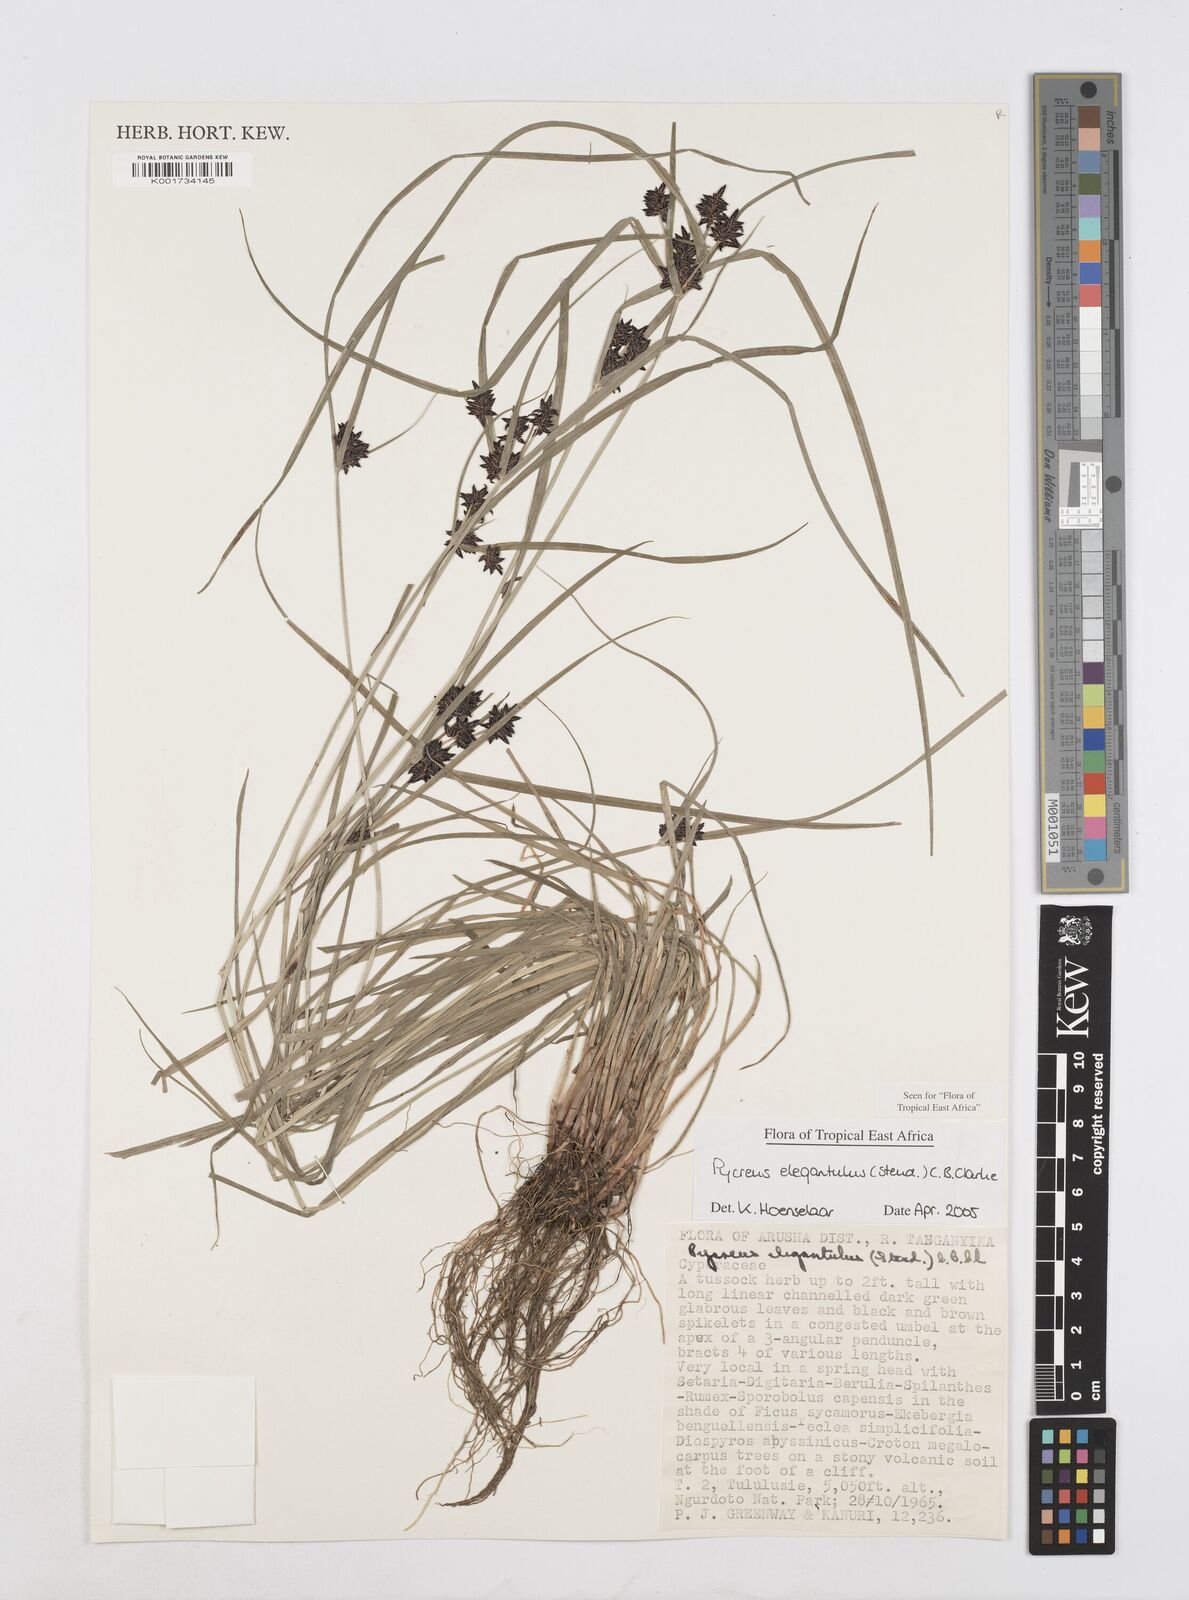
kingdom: Plantae
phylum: Tracheophyta
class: Liliopsida
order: Poales
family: Cyperaceae
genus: Cyperus
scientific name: Cyperus elegantulus
